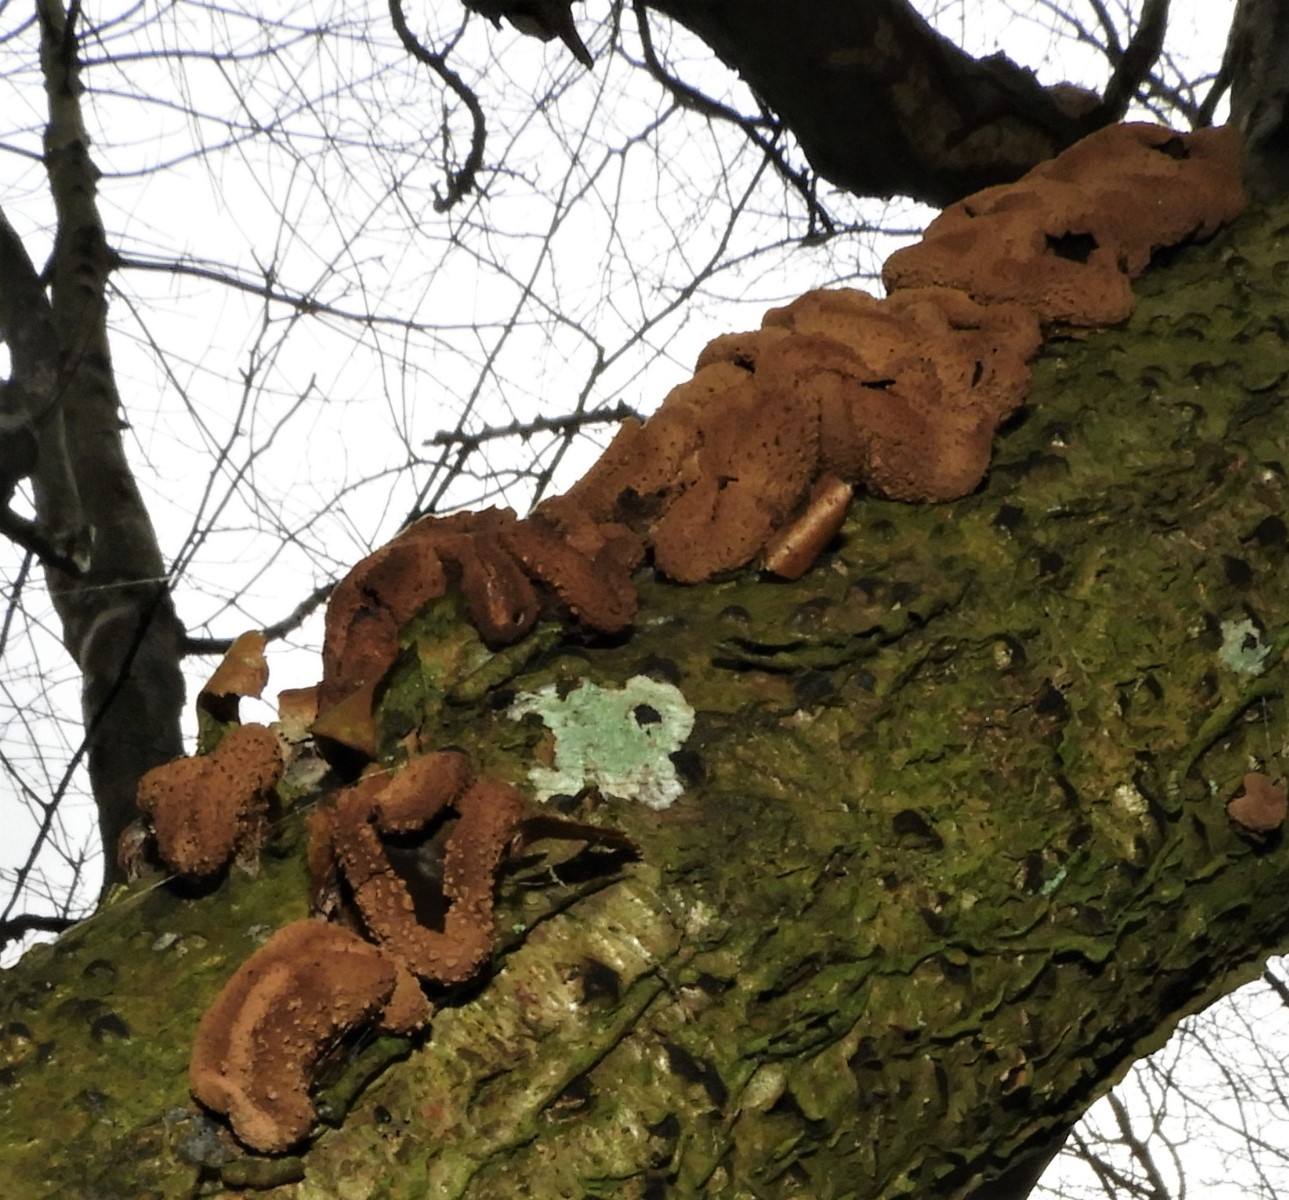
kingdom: Fungi
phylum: Ascomycota
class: Leotiomycetes
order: Helotiales
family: Cenangiaceae
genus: Encoelia
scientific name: Encoelia furfuracea
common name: hassel-læderskive
